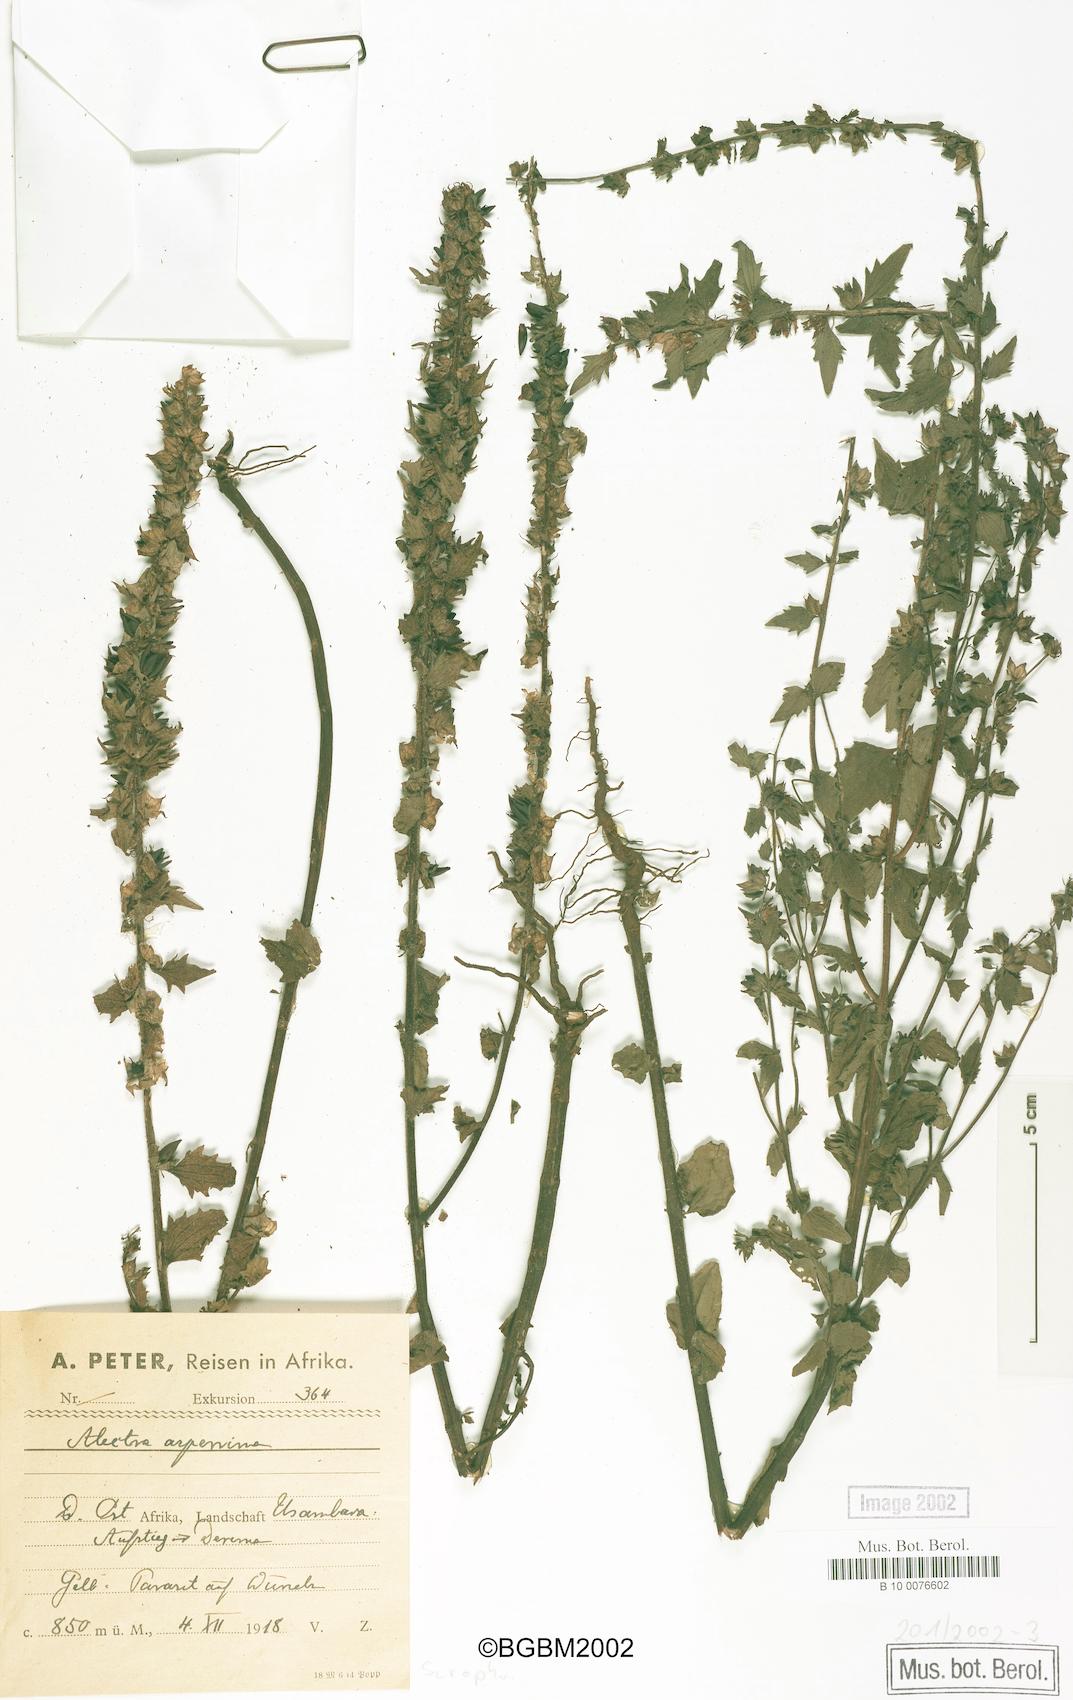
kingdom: Plantae
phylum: Tracheophyta
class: Magnoliopsida
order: Lamiales
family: Orobanchaceae
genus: Alectra
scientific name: Alectra asperrima
